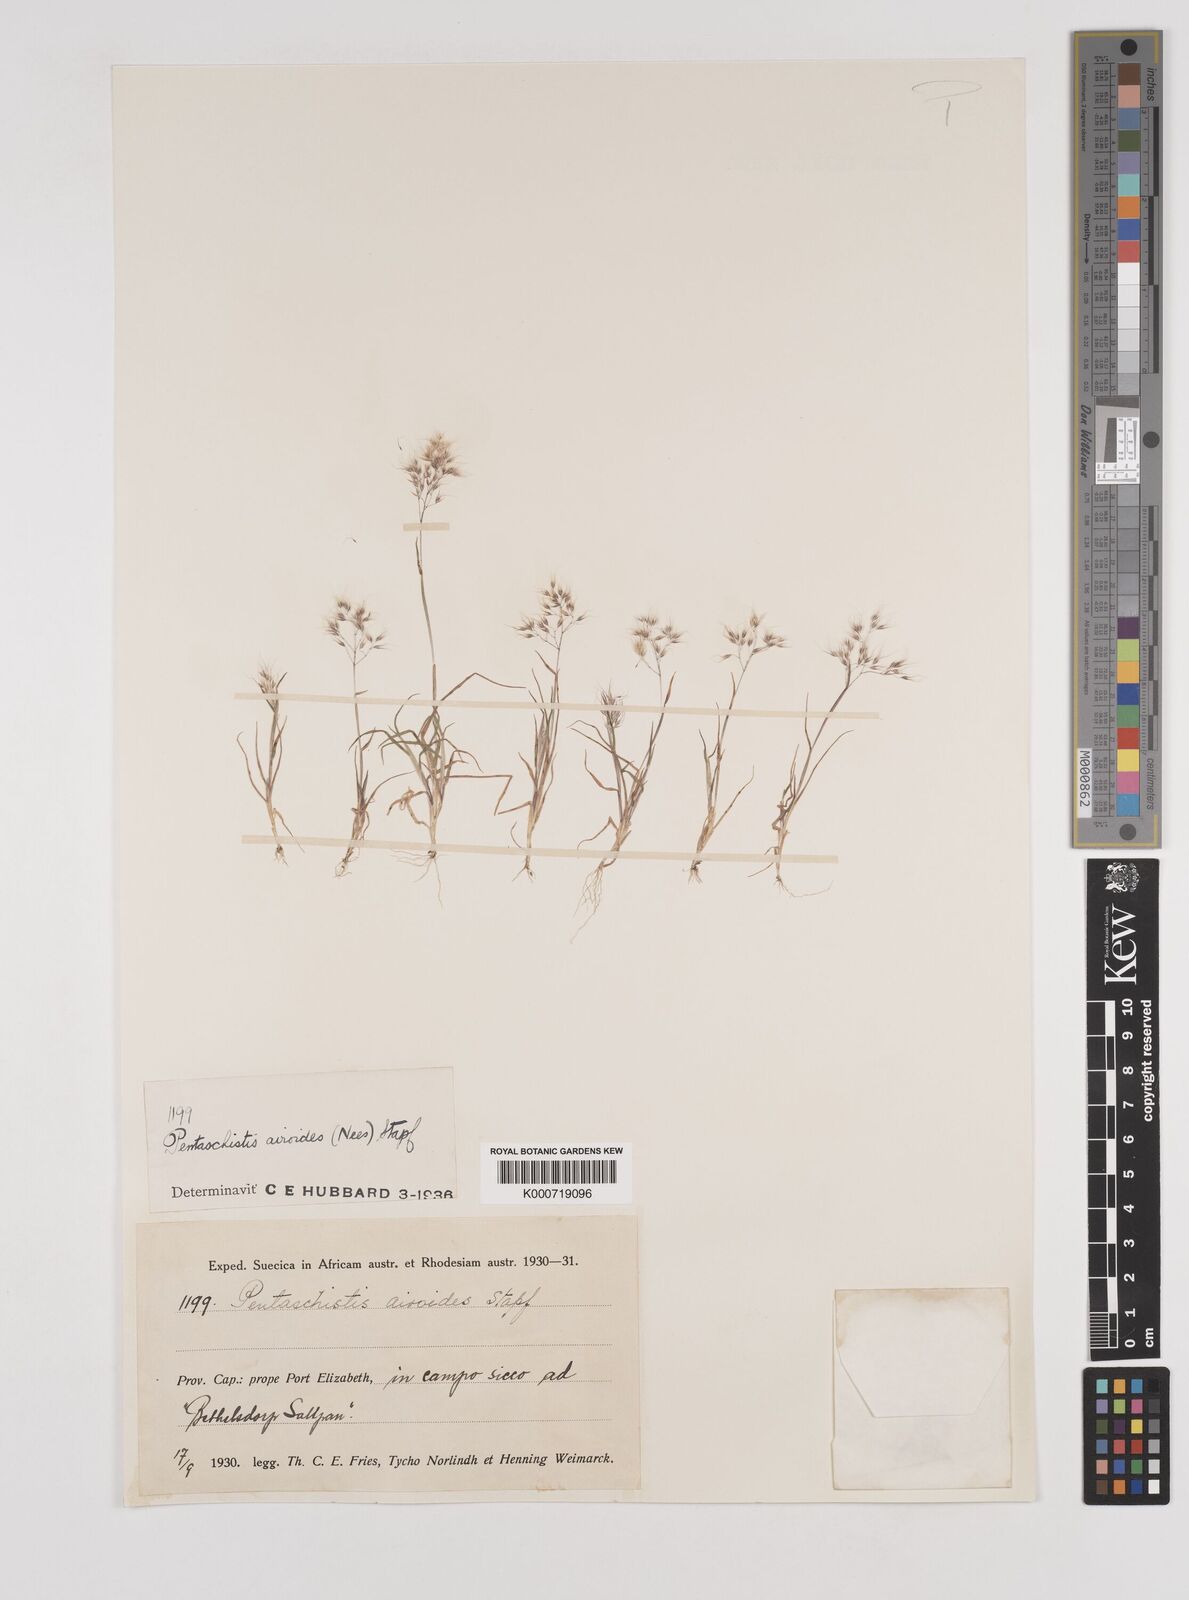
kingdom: Plantae
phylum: Tracheophyta
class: Liliopsida
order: Poales
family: Poaceae
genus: Pentameris
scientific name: Pentameris airoides
